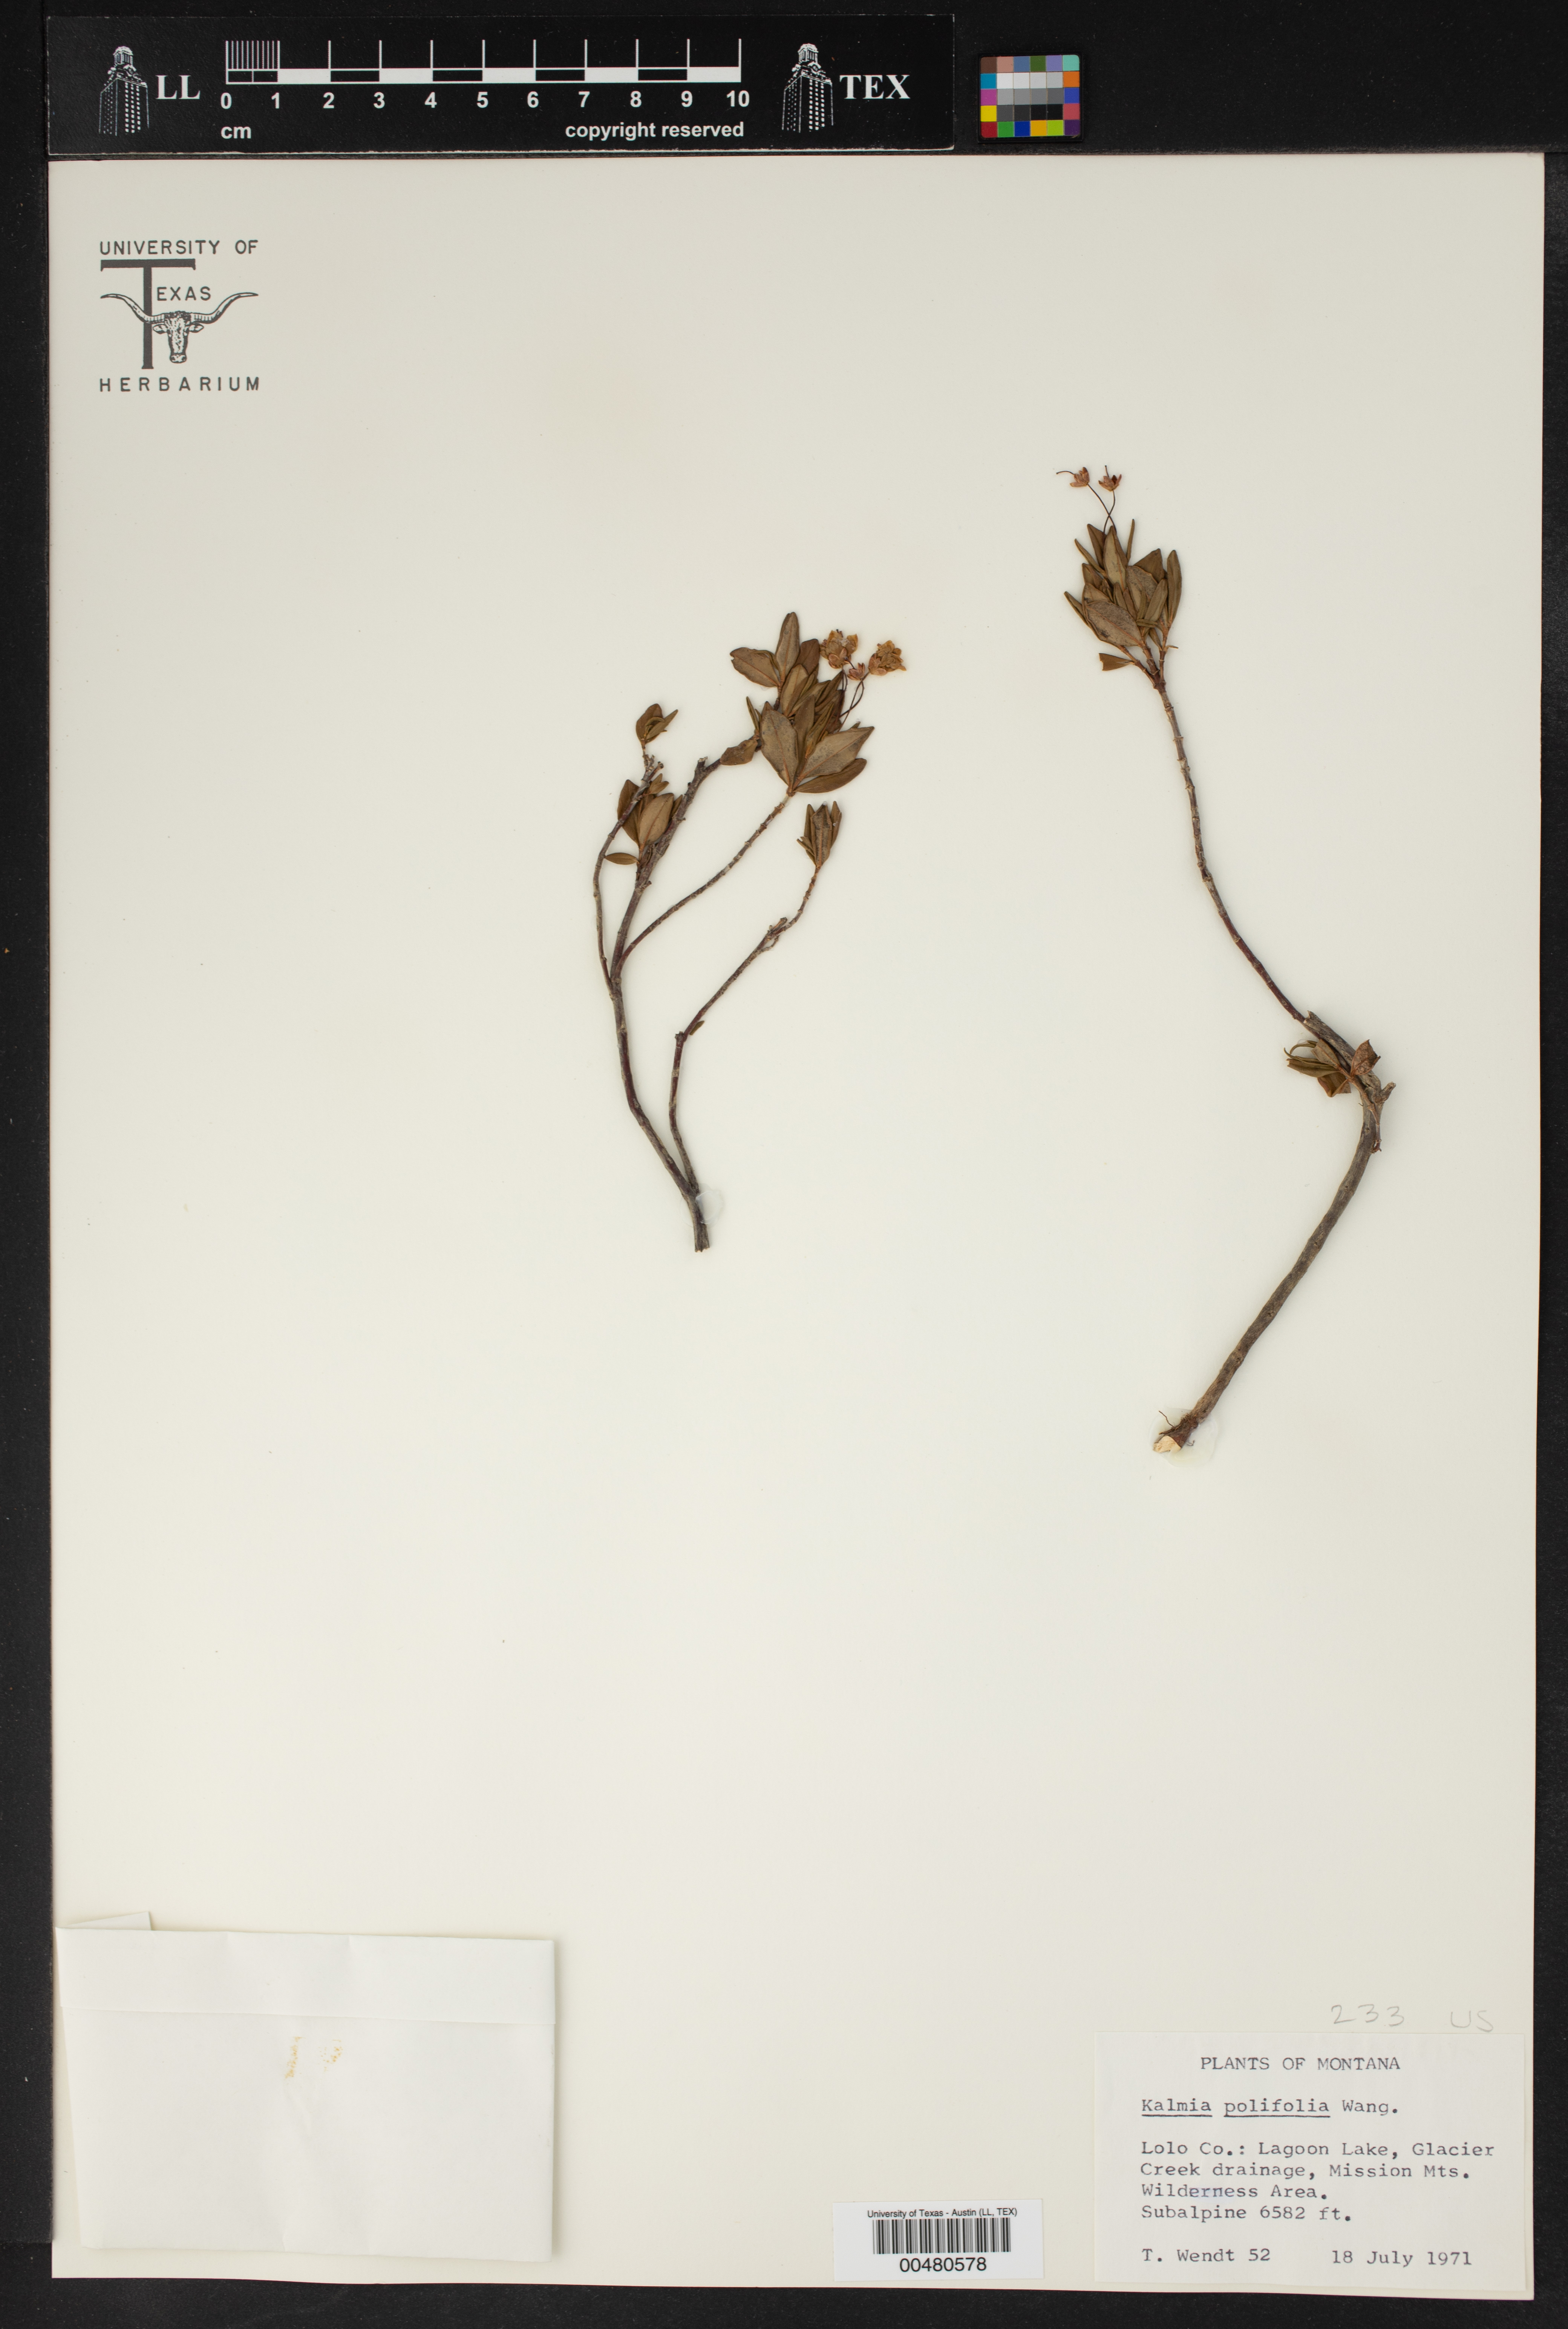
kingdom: Plantae
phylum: Tracheophyta
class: Magnoliopsida
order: Ericales
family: Ericaceae
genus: Kalmia
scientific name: Kalmia polifolia
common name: Bog-laurel
